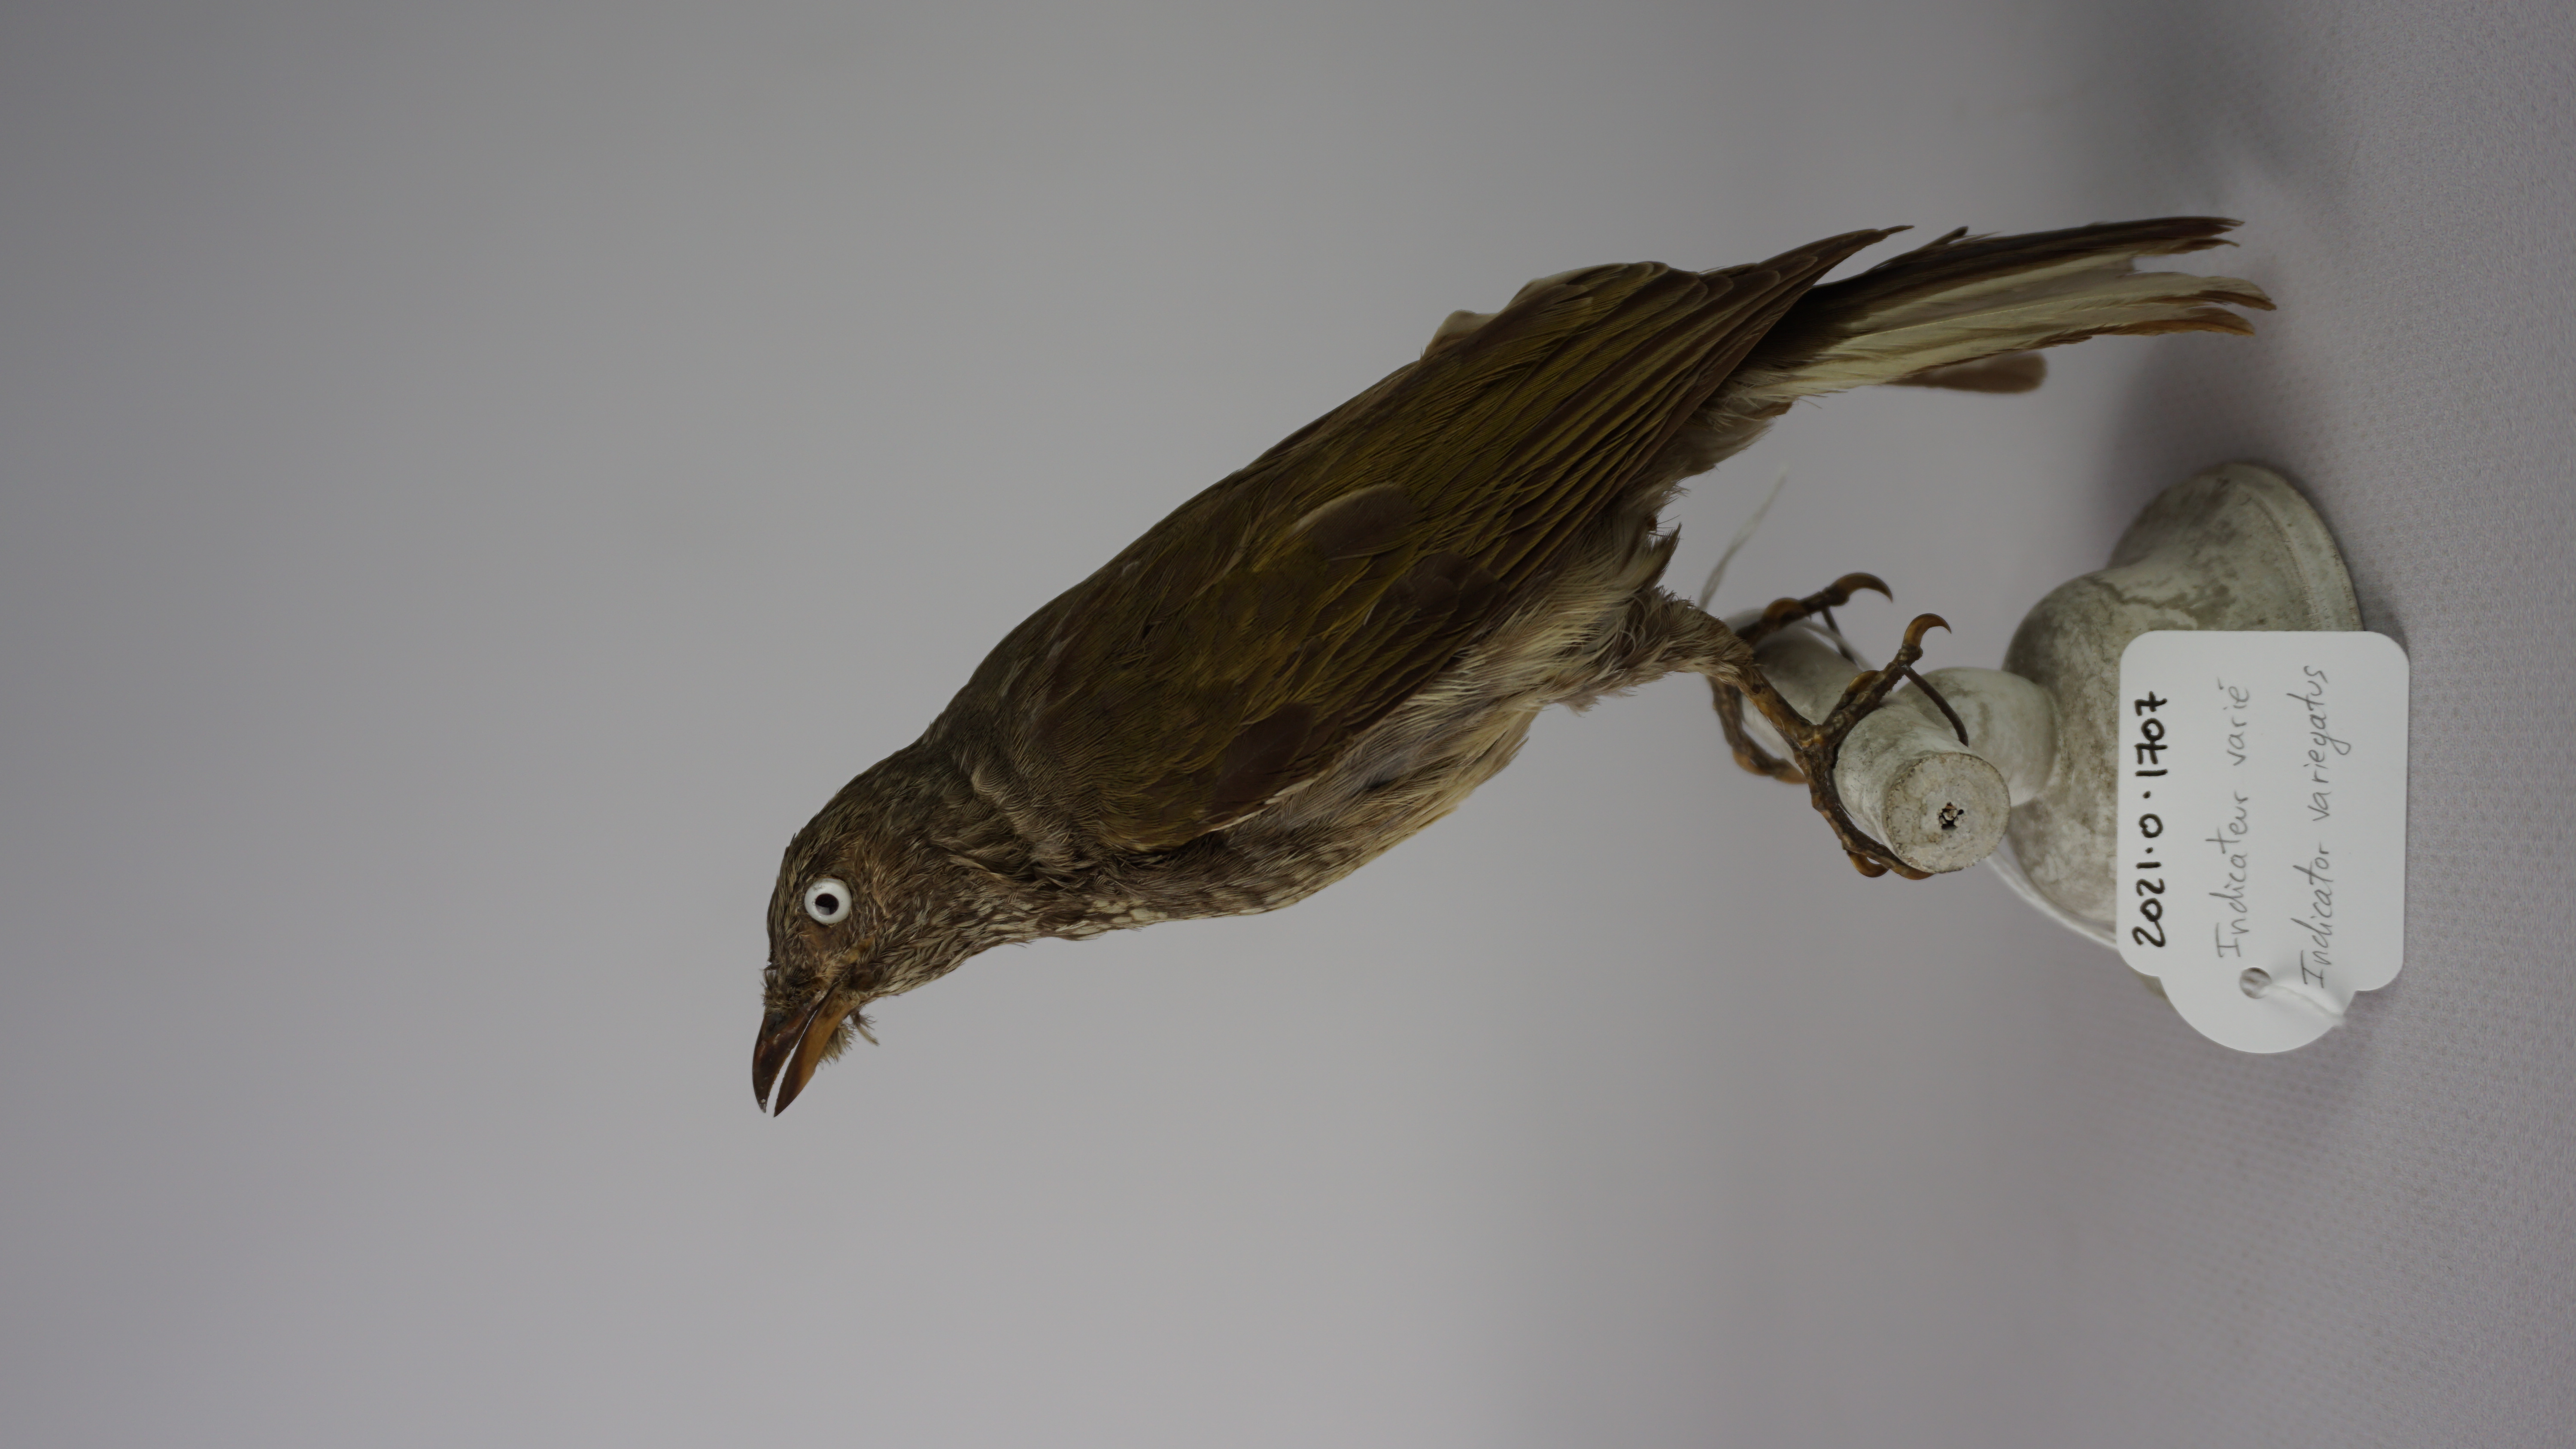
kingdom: Animalia
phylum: Chordata
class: Aves
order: Piciformes
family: Indicatoridae
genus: Indicator
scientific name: Indicator variegatus
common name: Scaly-throated honeyguide
